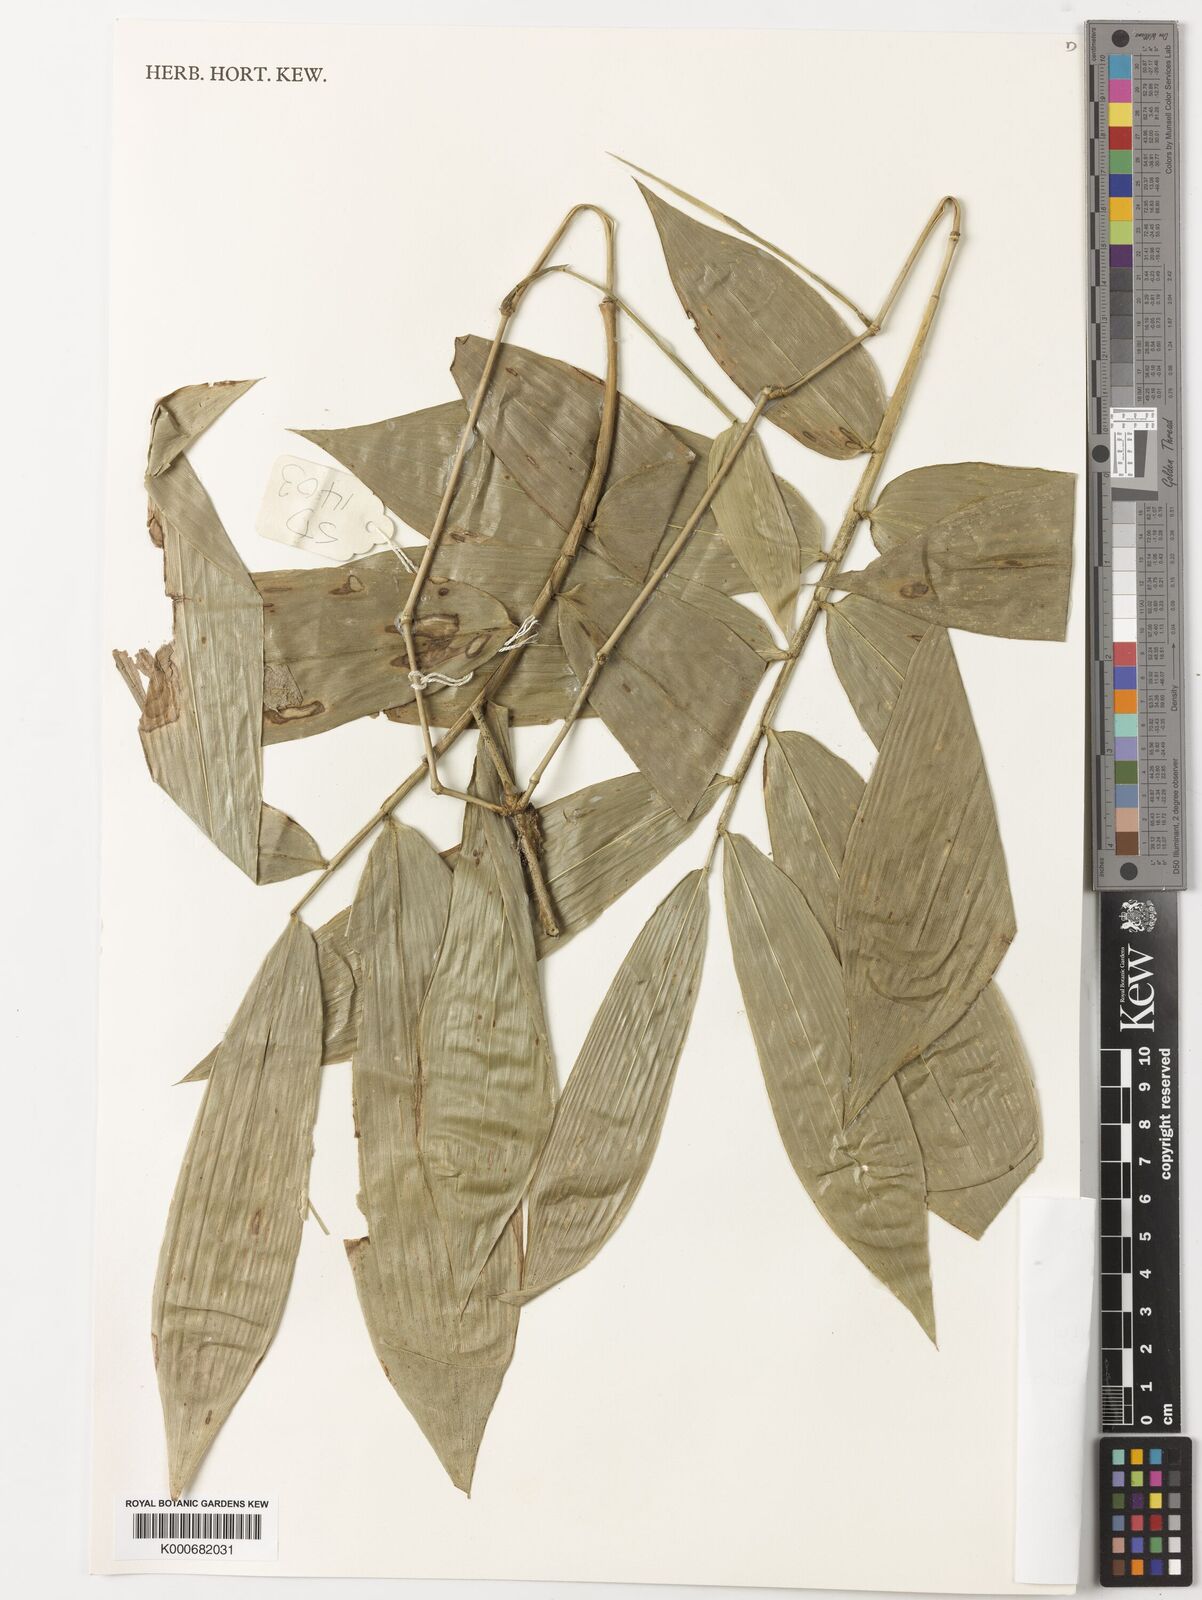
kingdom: Plantae
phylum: Tracheophyta
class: Liliopsida
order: Poales
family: Poaceae
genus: Dinochloa
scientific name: Dinochloa malayana
